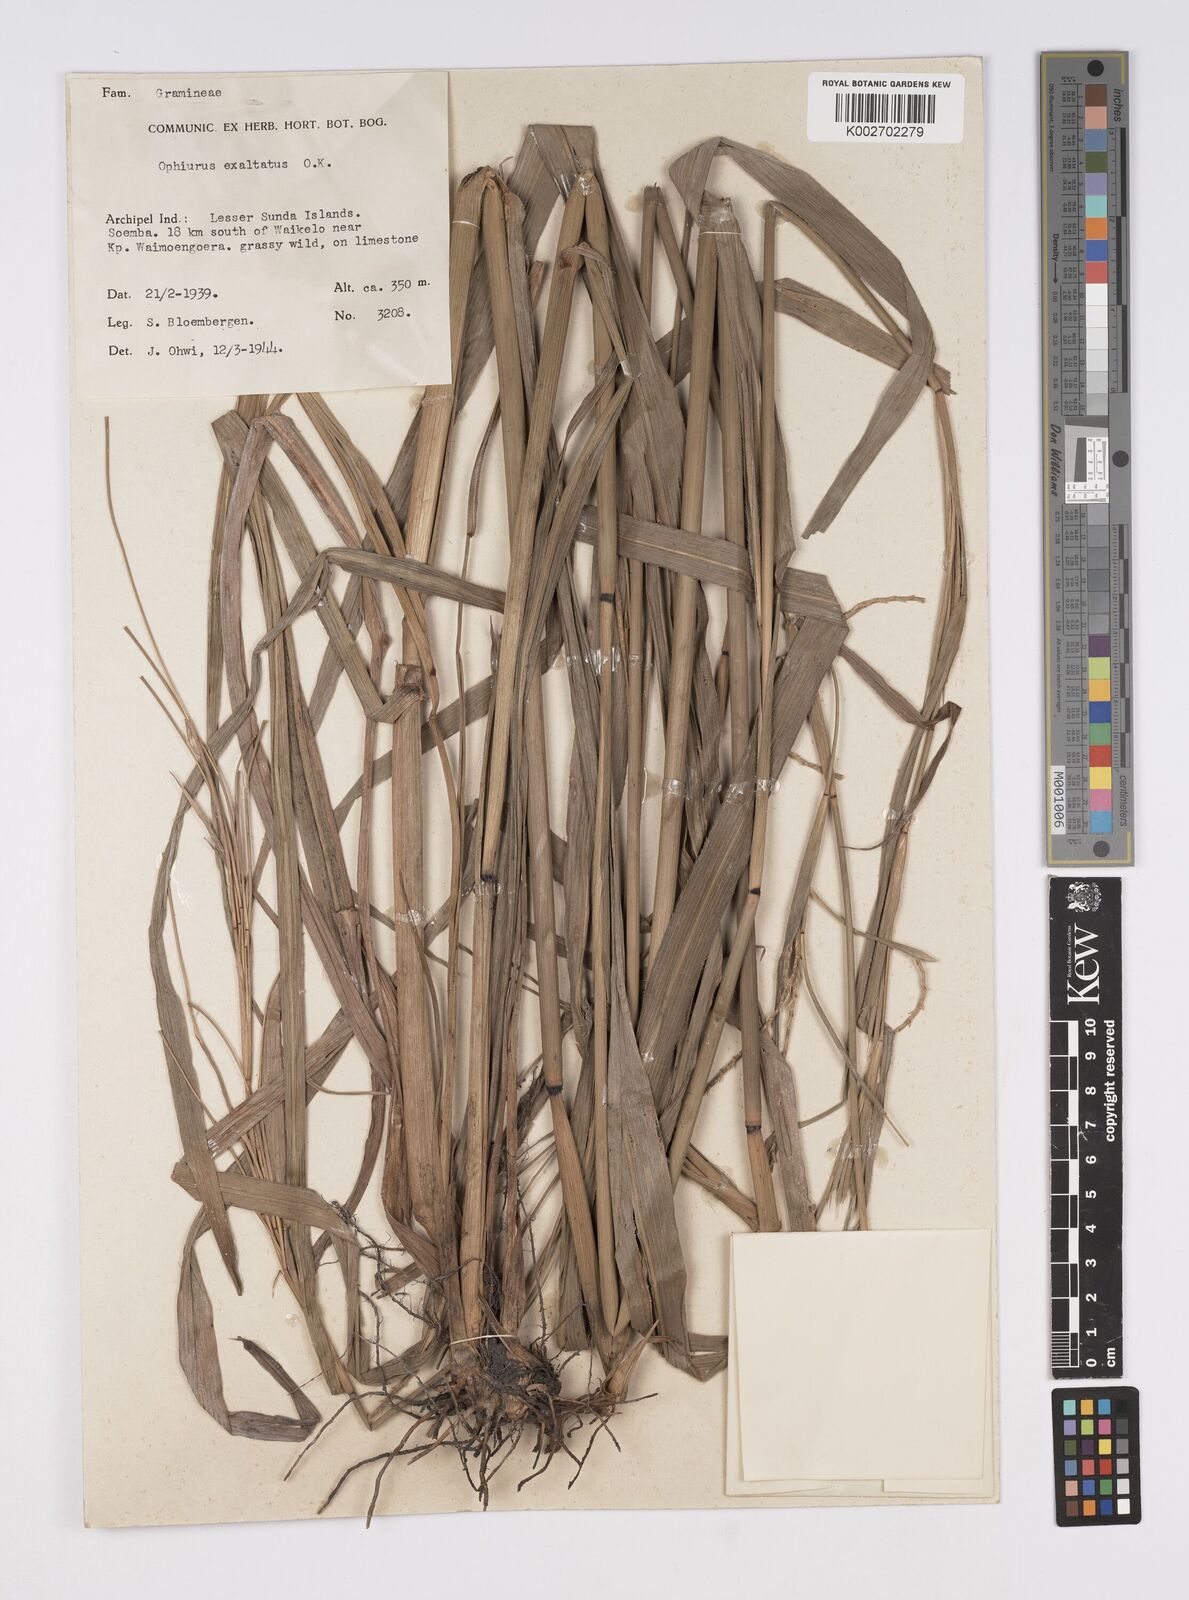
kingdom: Plantae
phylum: Tracheophyta
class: Liliopsida
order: Poales
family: Poaceae
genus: Ophiuros
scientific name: Ophiuros megaphyllus
